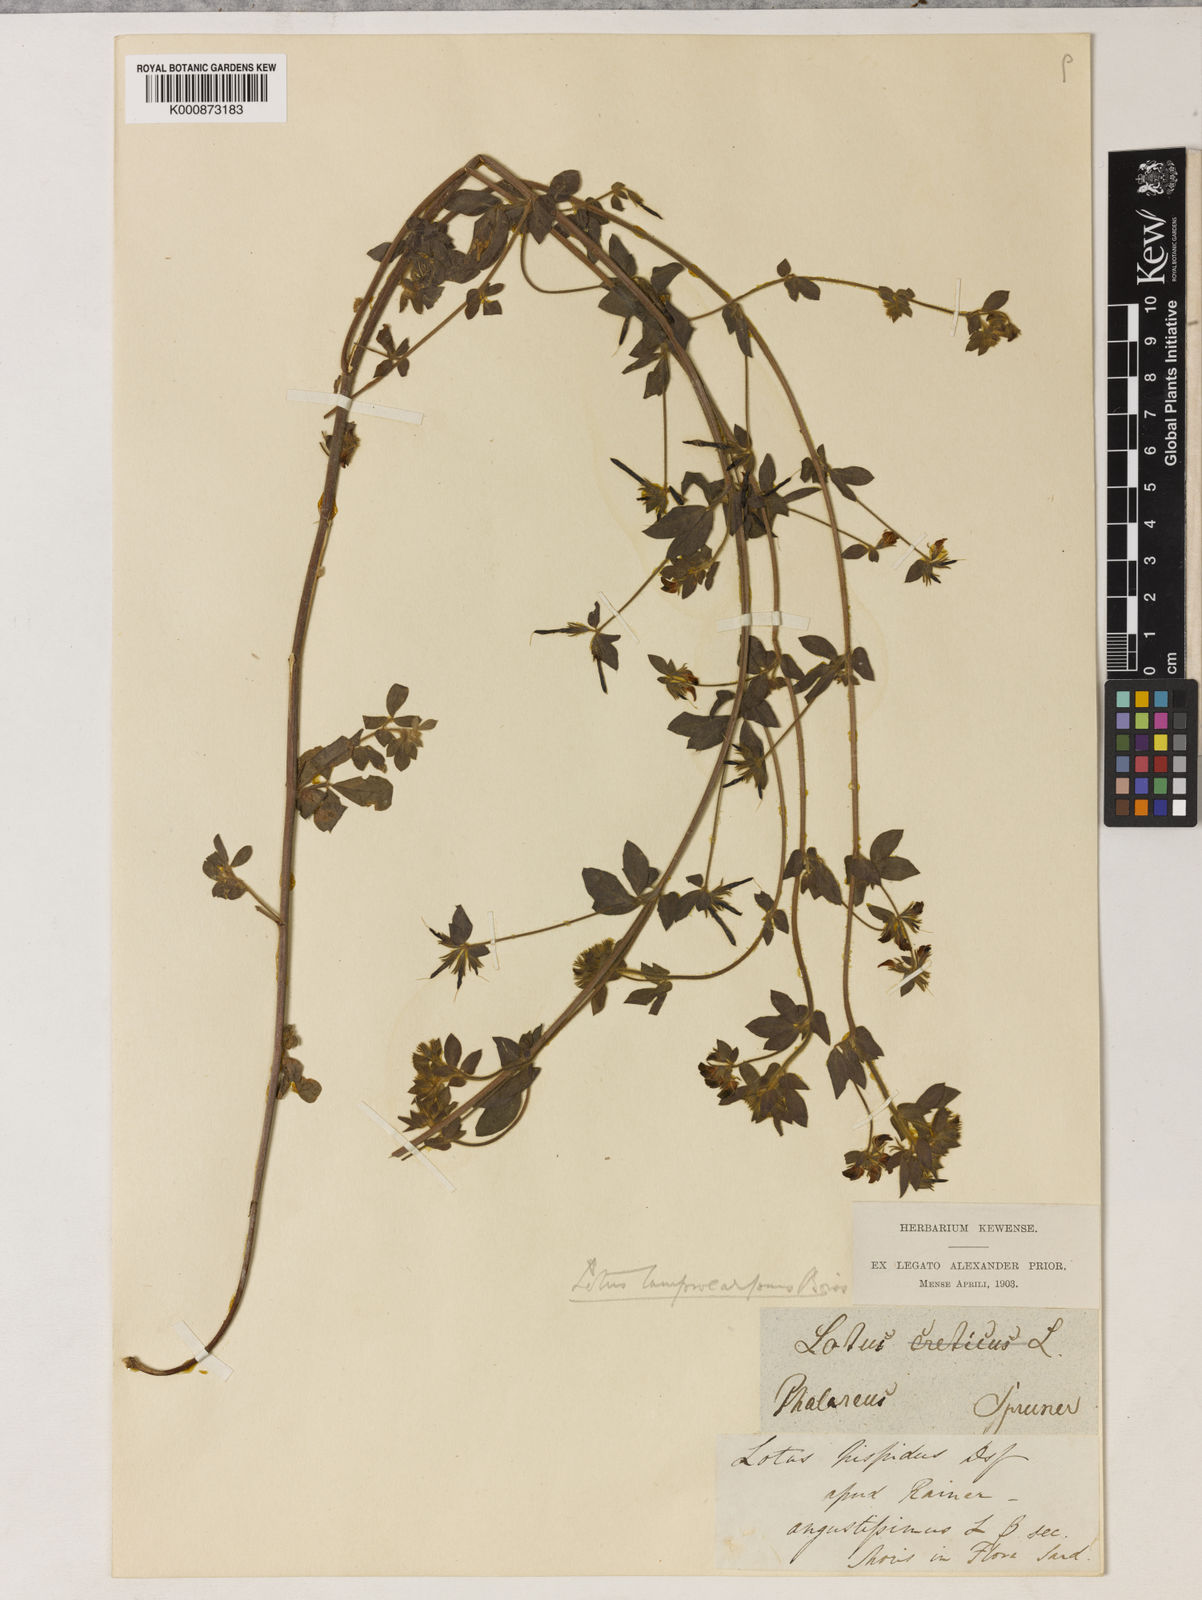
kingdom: Plantae
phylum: Tracheophyta
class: Magnoliopsida
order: Fabales
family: Fabaceae
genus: Lotus
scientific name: Lotus palustris
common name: Large birds-foot trefoil
